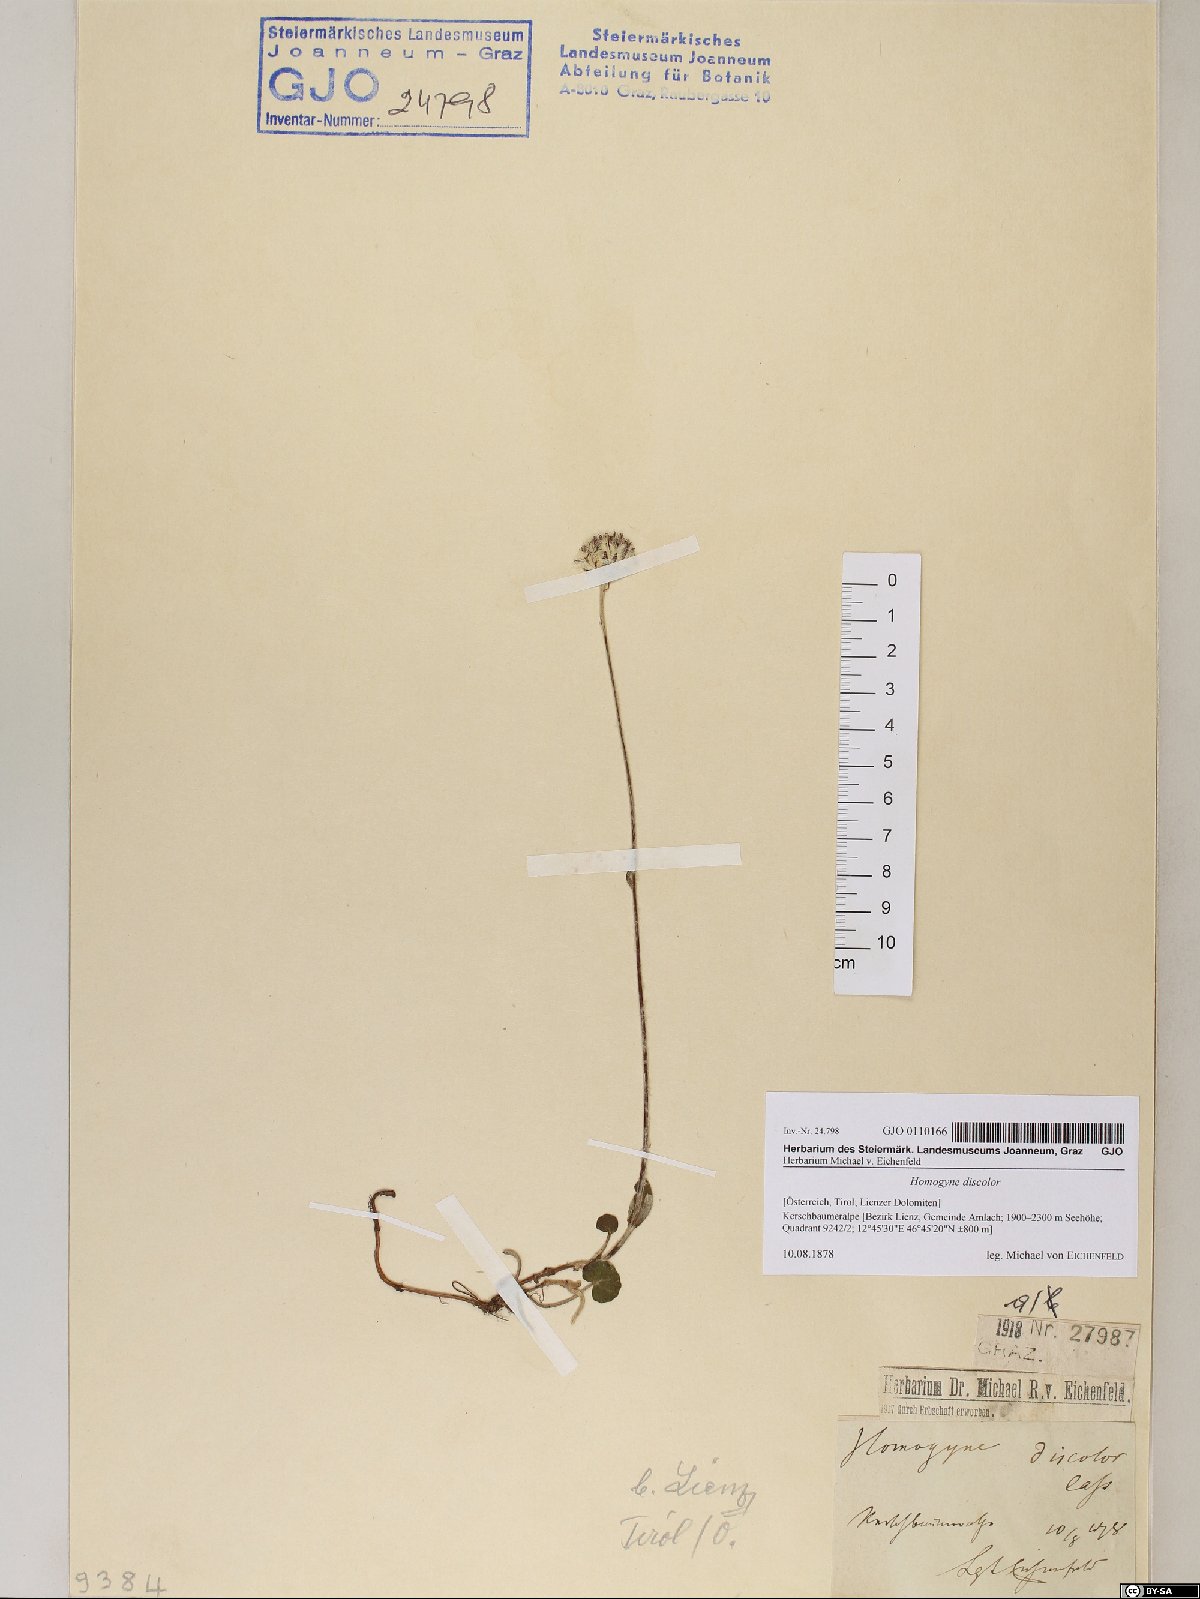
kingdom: Plantae
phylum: Tracheophyta
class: Magnoliopsida
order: Asterales
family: Asteraceae
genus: Homogyne
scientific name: Homogyne discolor
